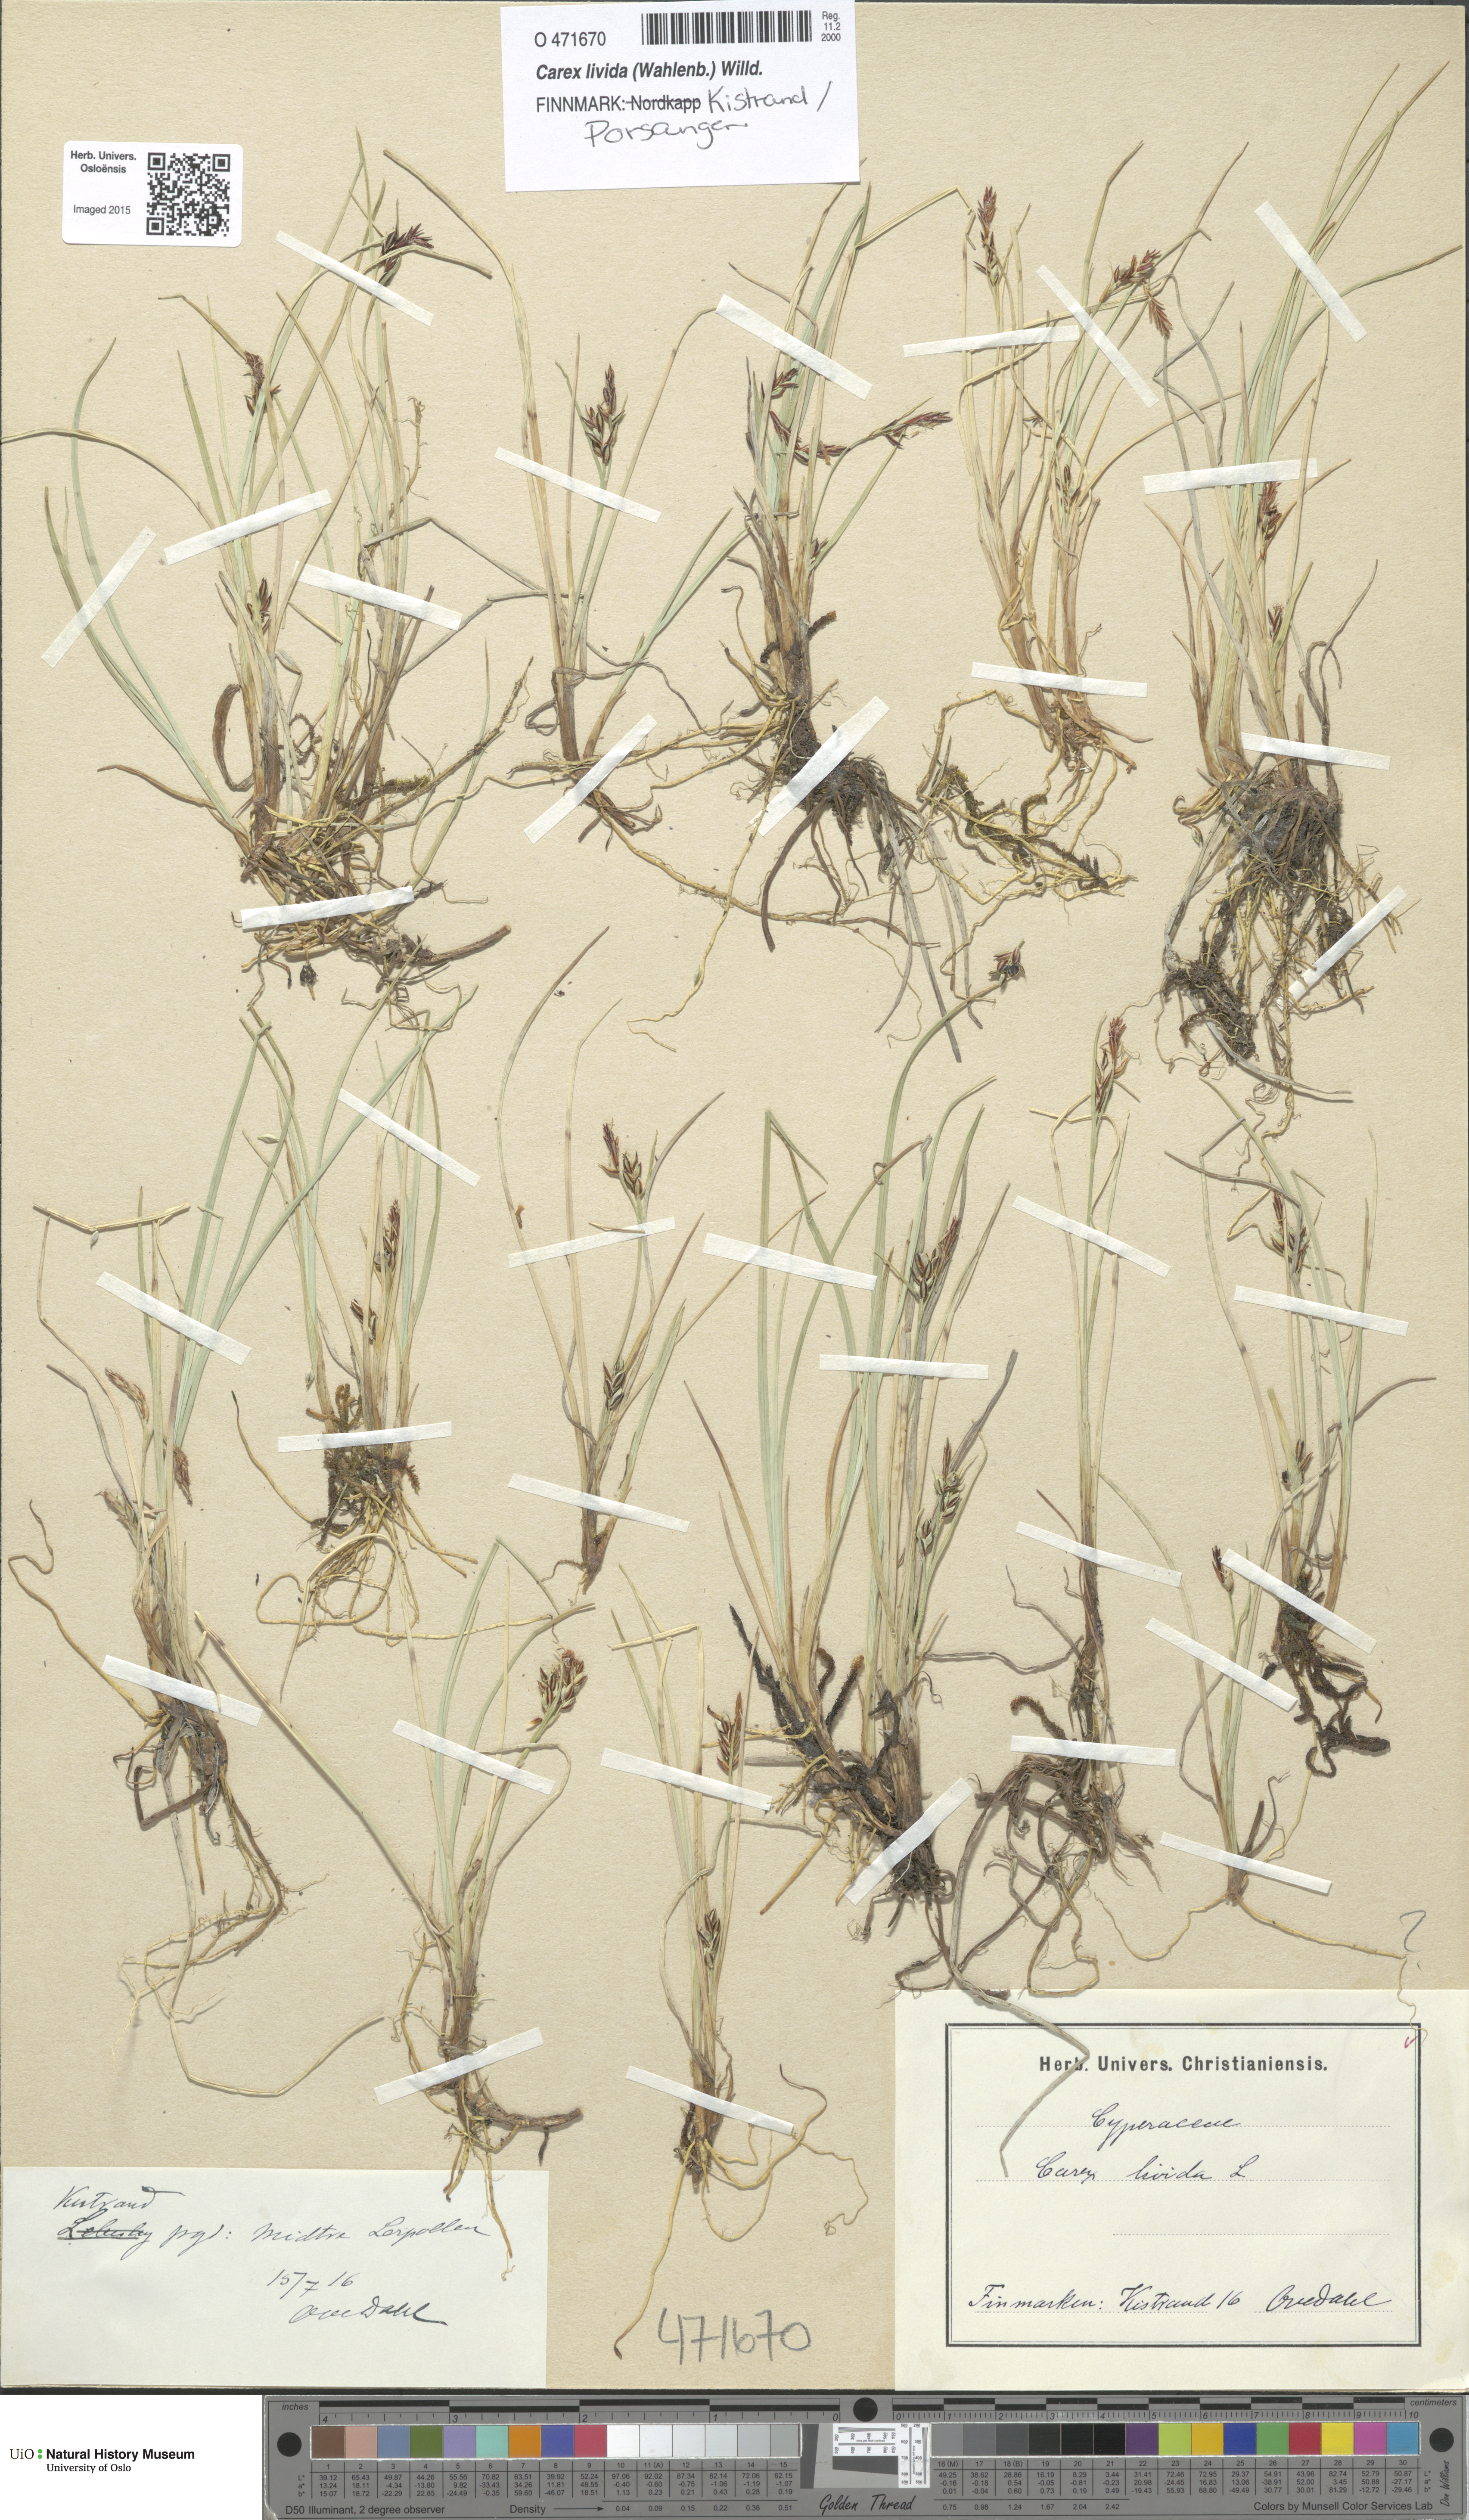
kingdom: Plantae
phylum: Tracheophyta
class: Liliopsida
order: Poales
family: Cyperaceae
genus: Carex
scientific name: Carex livida
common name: Livid sedge
